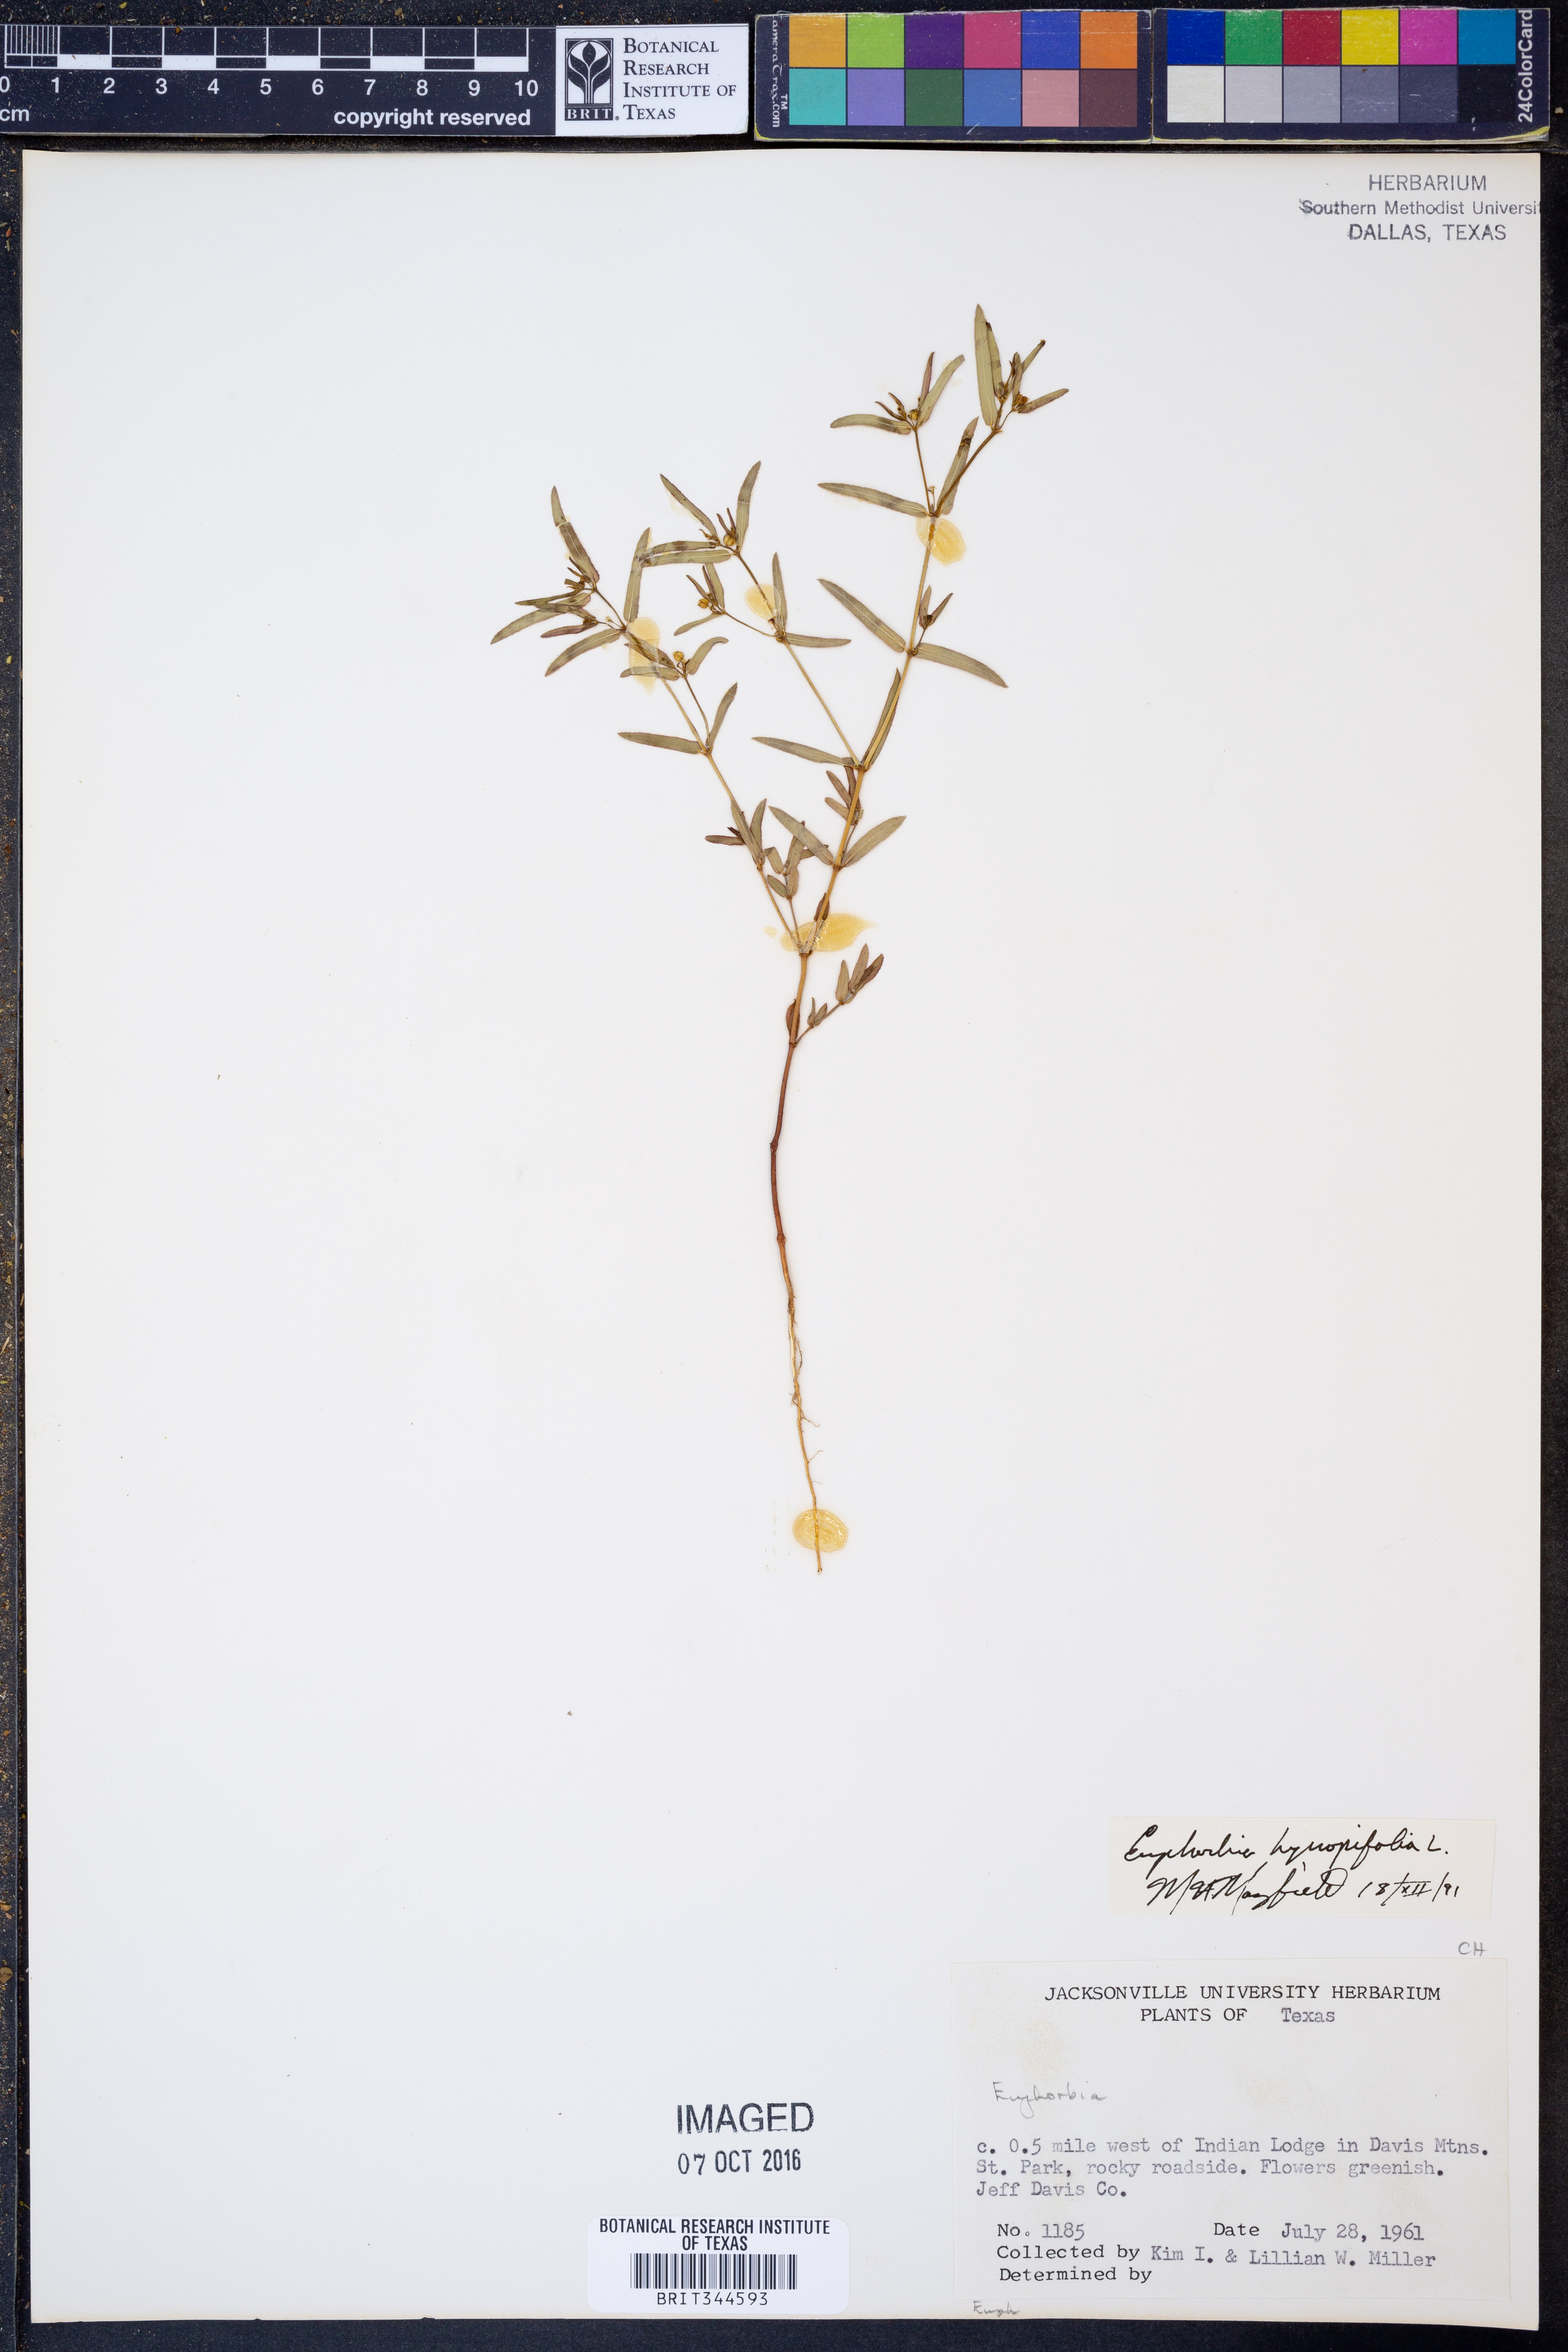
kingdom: Plantae
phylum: Tracheophyta
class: Magnoliopsida
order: Malpighiales
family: Euphorbiaceae
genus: Euphorbia
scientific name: Euphorbia hyssopifolia
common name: Hyssopleaf sandmat
